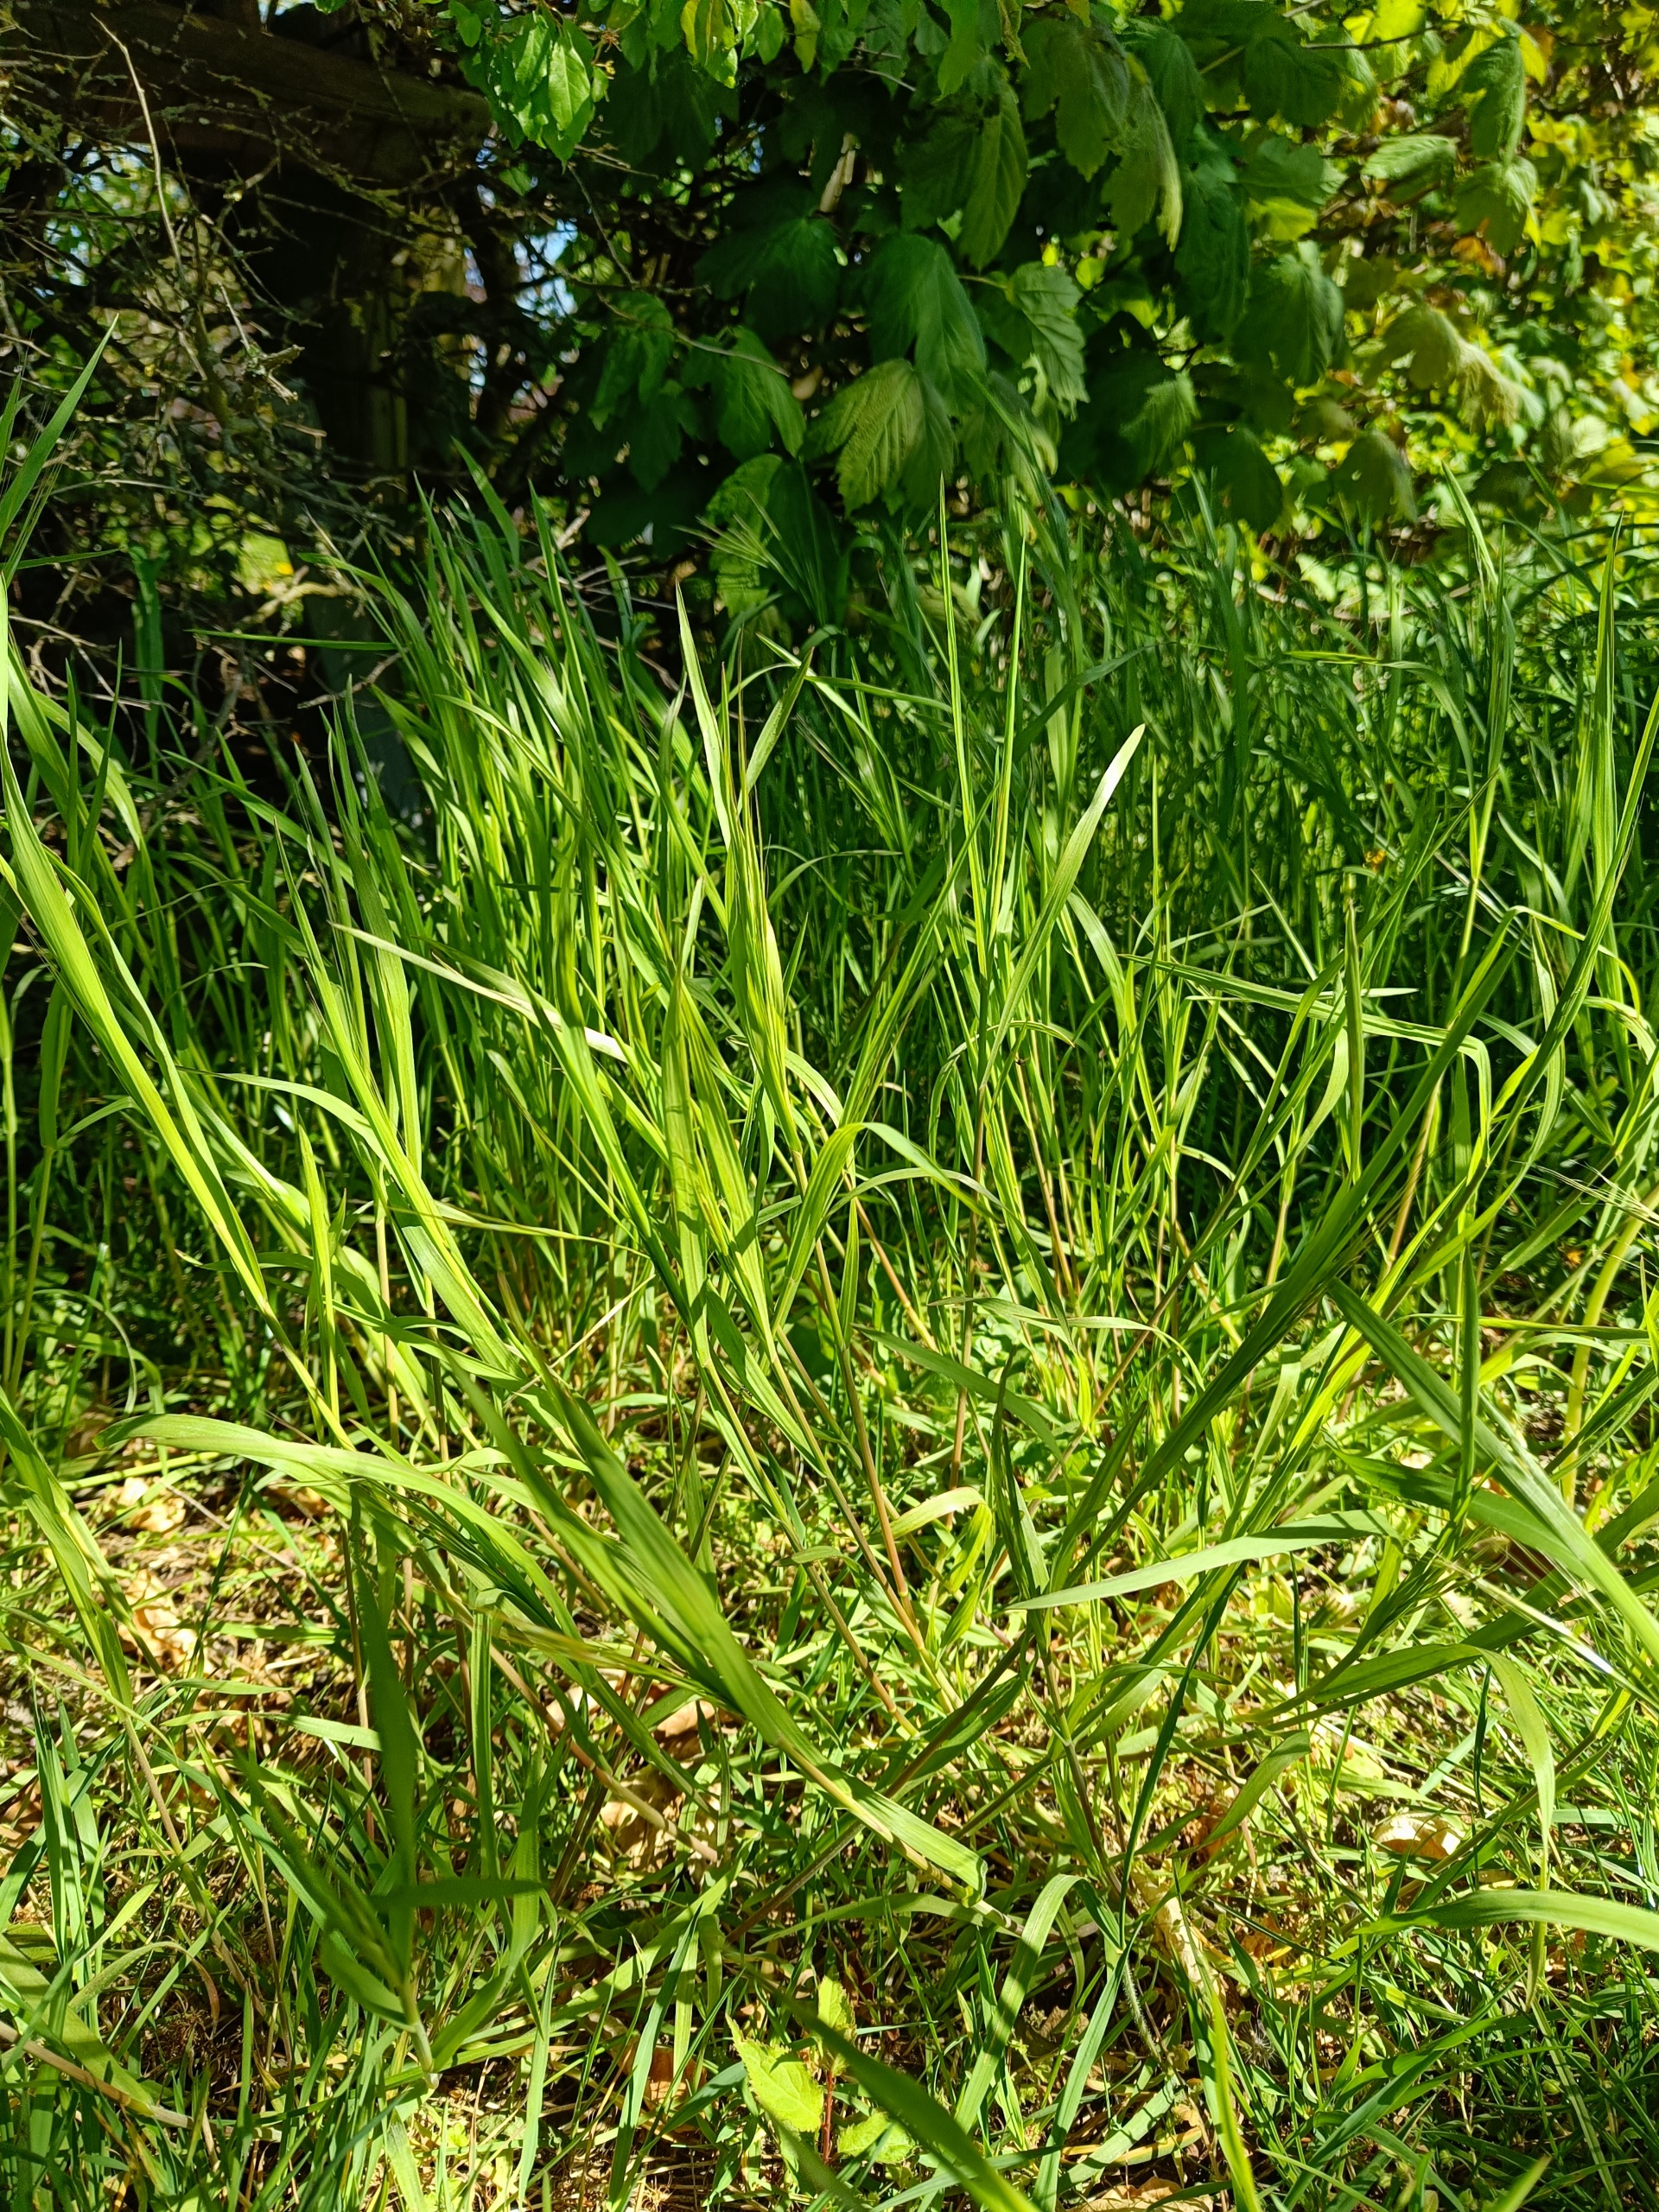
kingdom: Plantae
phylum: Tracheophyta
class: Liliopsida
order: Poales
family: Poaceae
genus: Bromus
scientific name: Bromus sterilis
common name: Gold hejre
